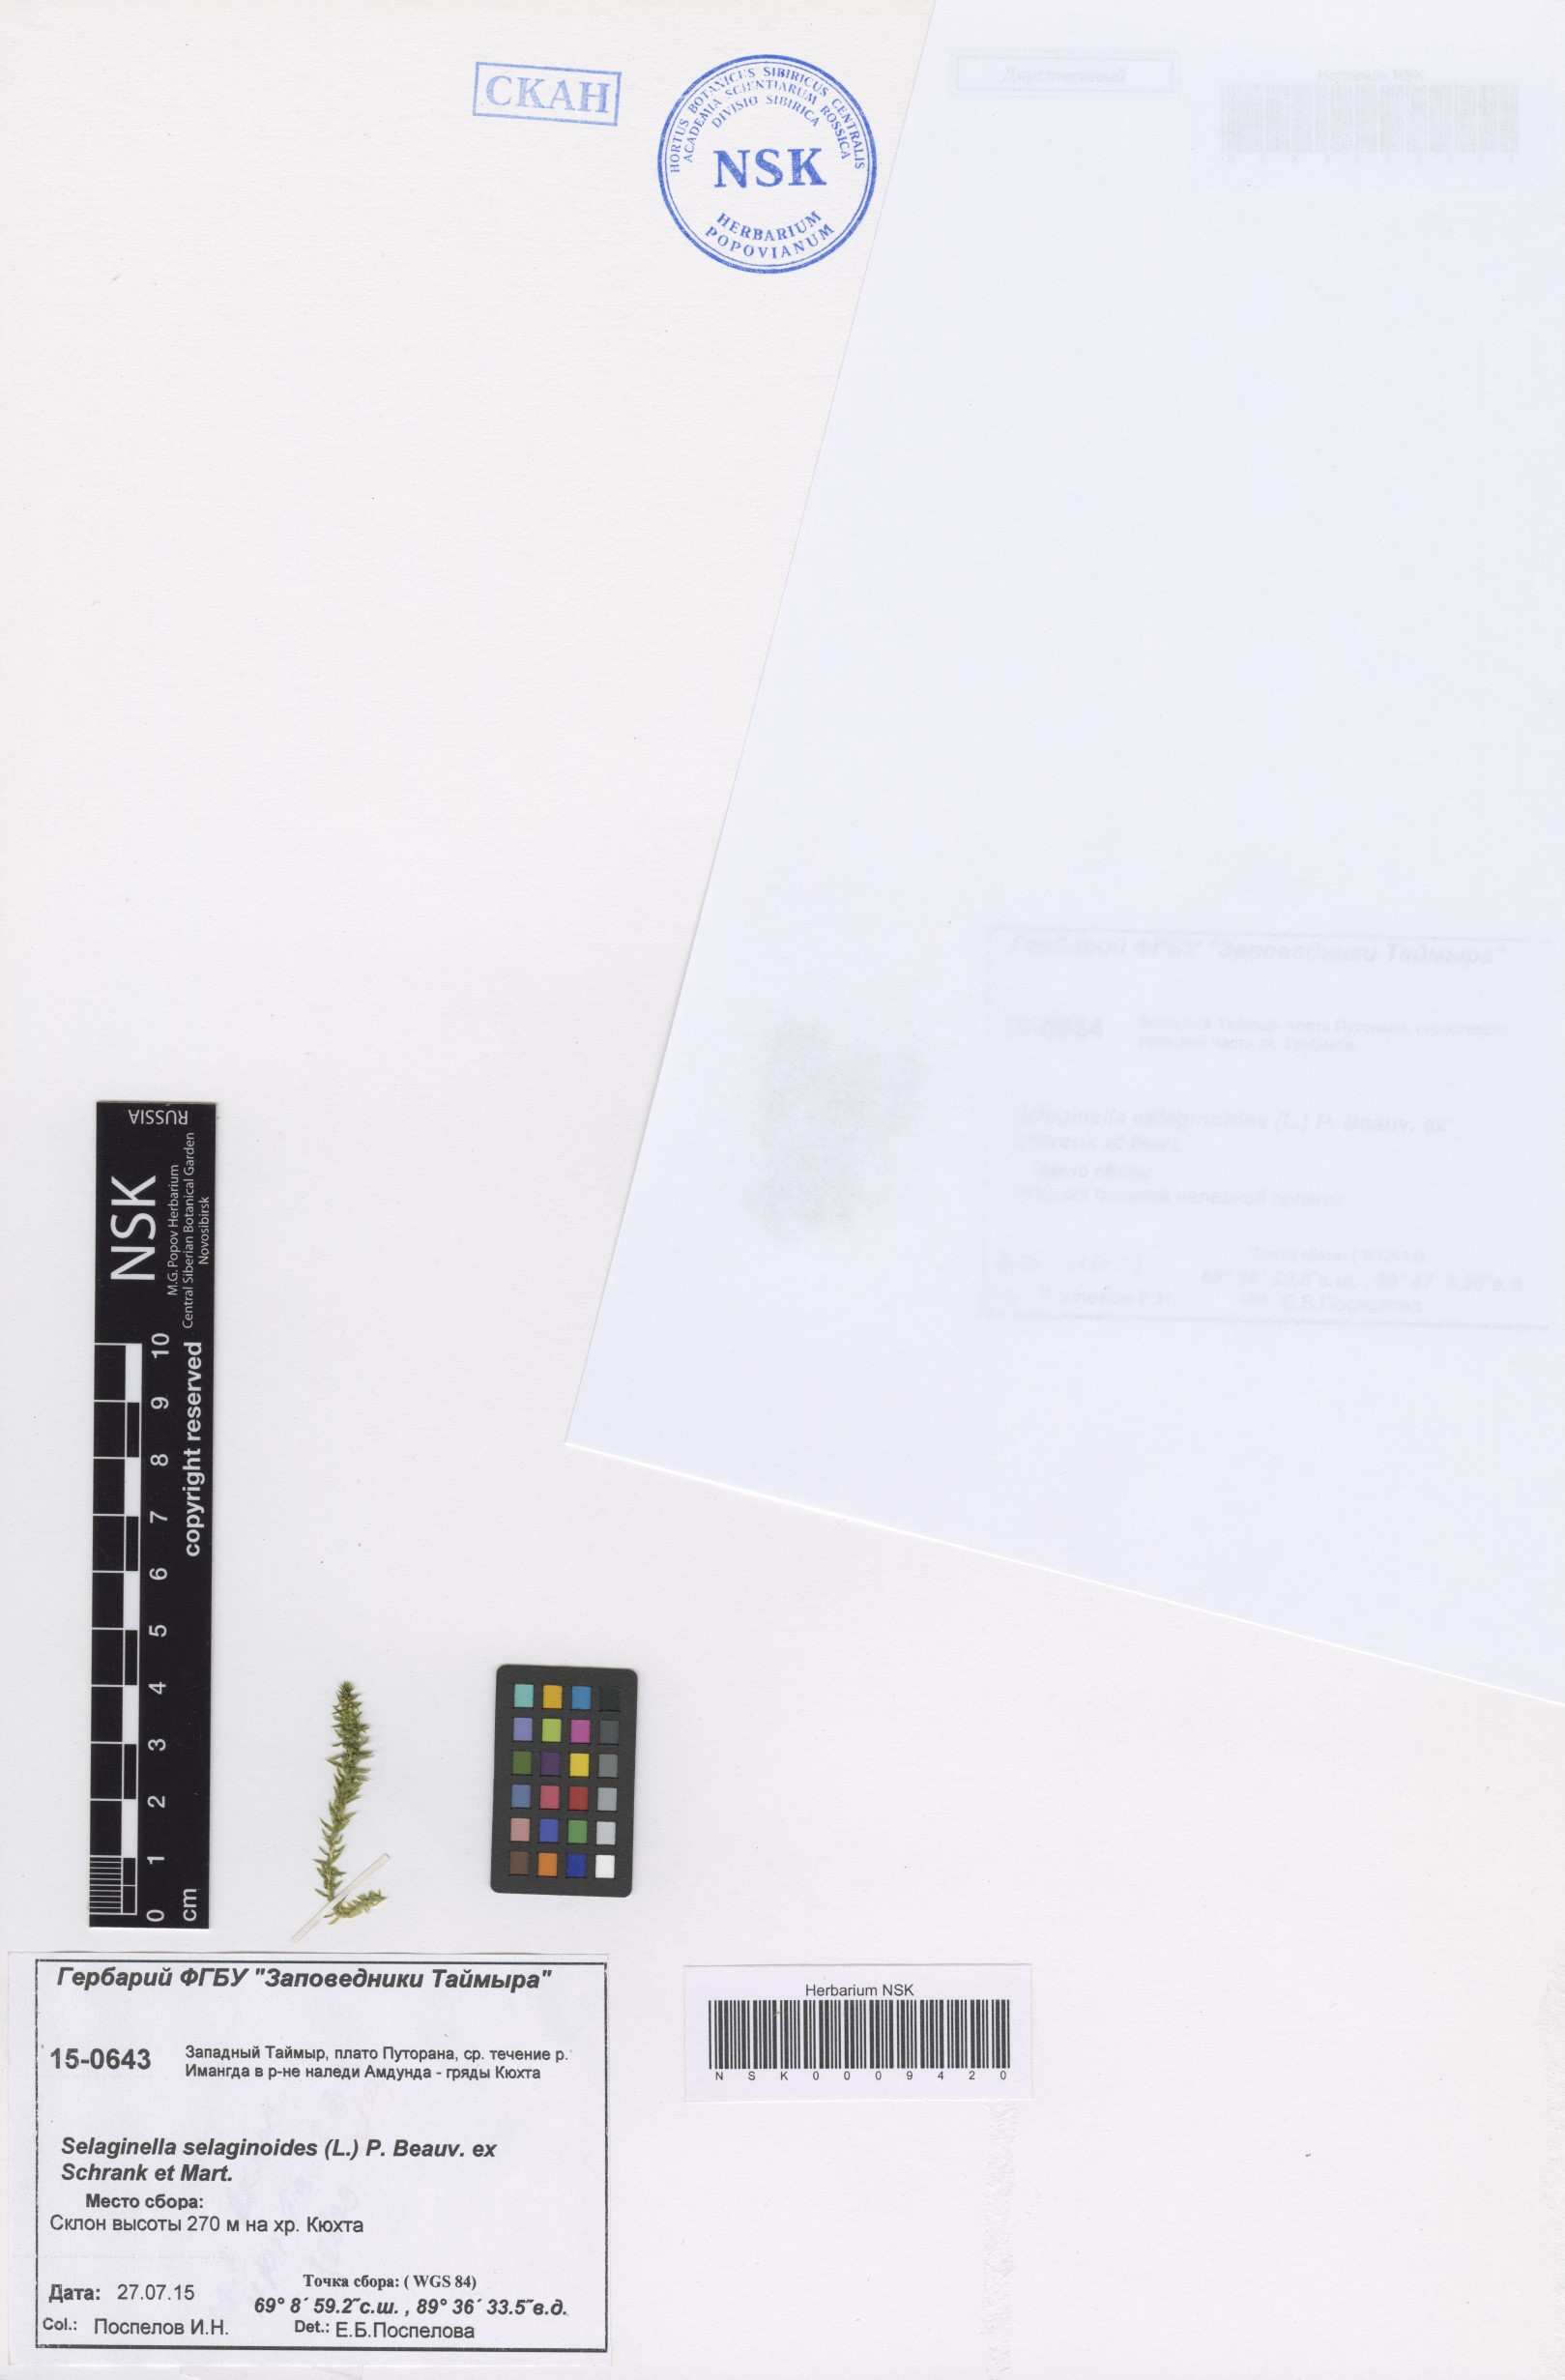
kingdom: Plantae
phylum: Tracheophyta
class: Lycopodiopsida
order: Selaginellales
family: Selaginellaceae
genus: Selaginella
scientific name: Selaginella selaginoides
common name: Prickly mountain-moss
